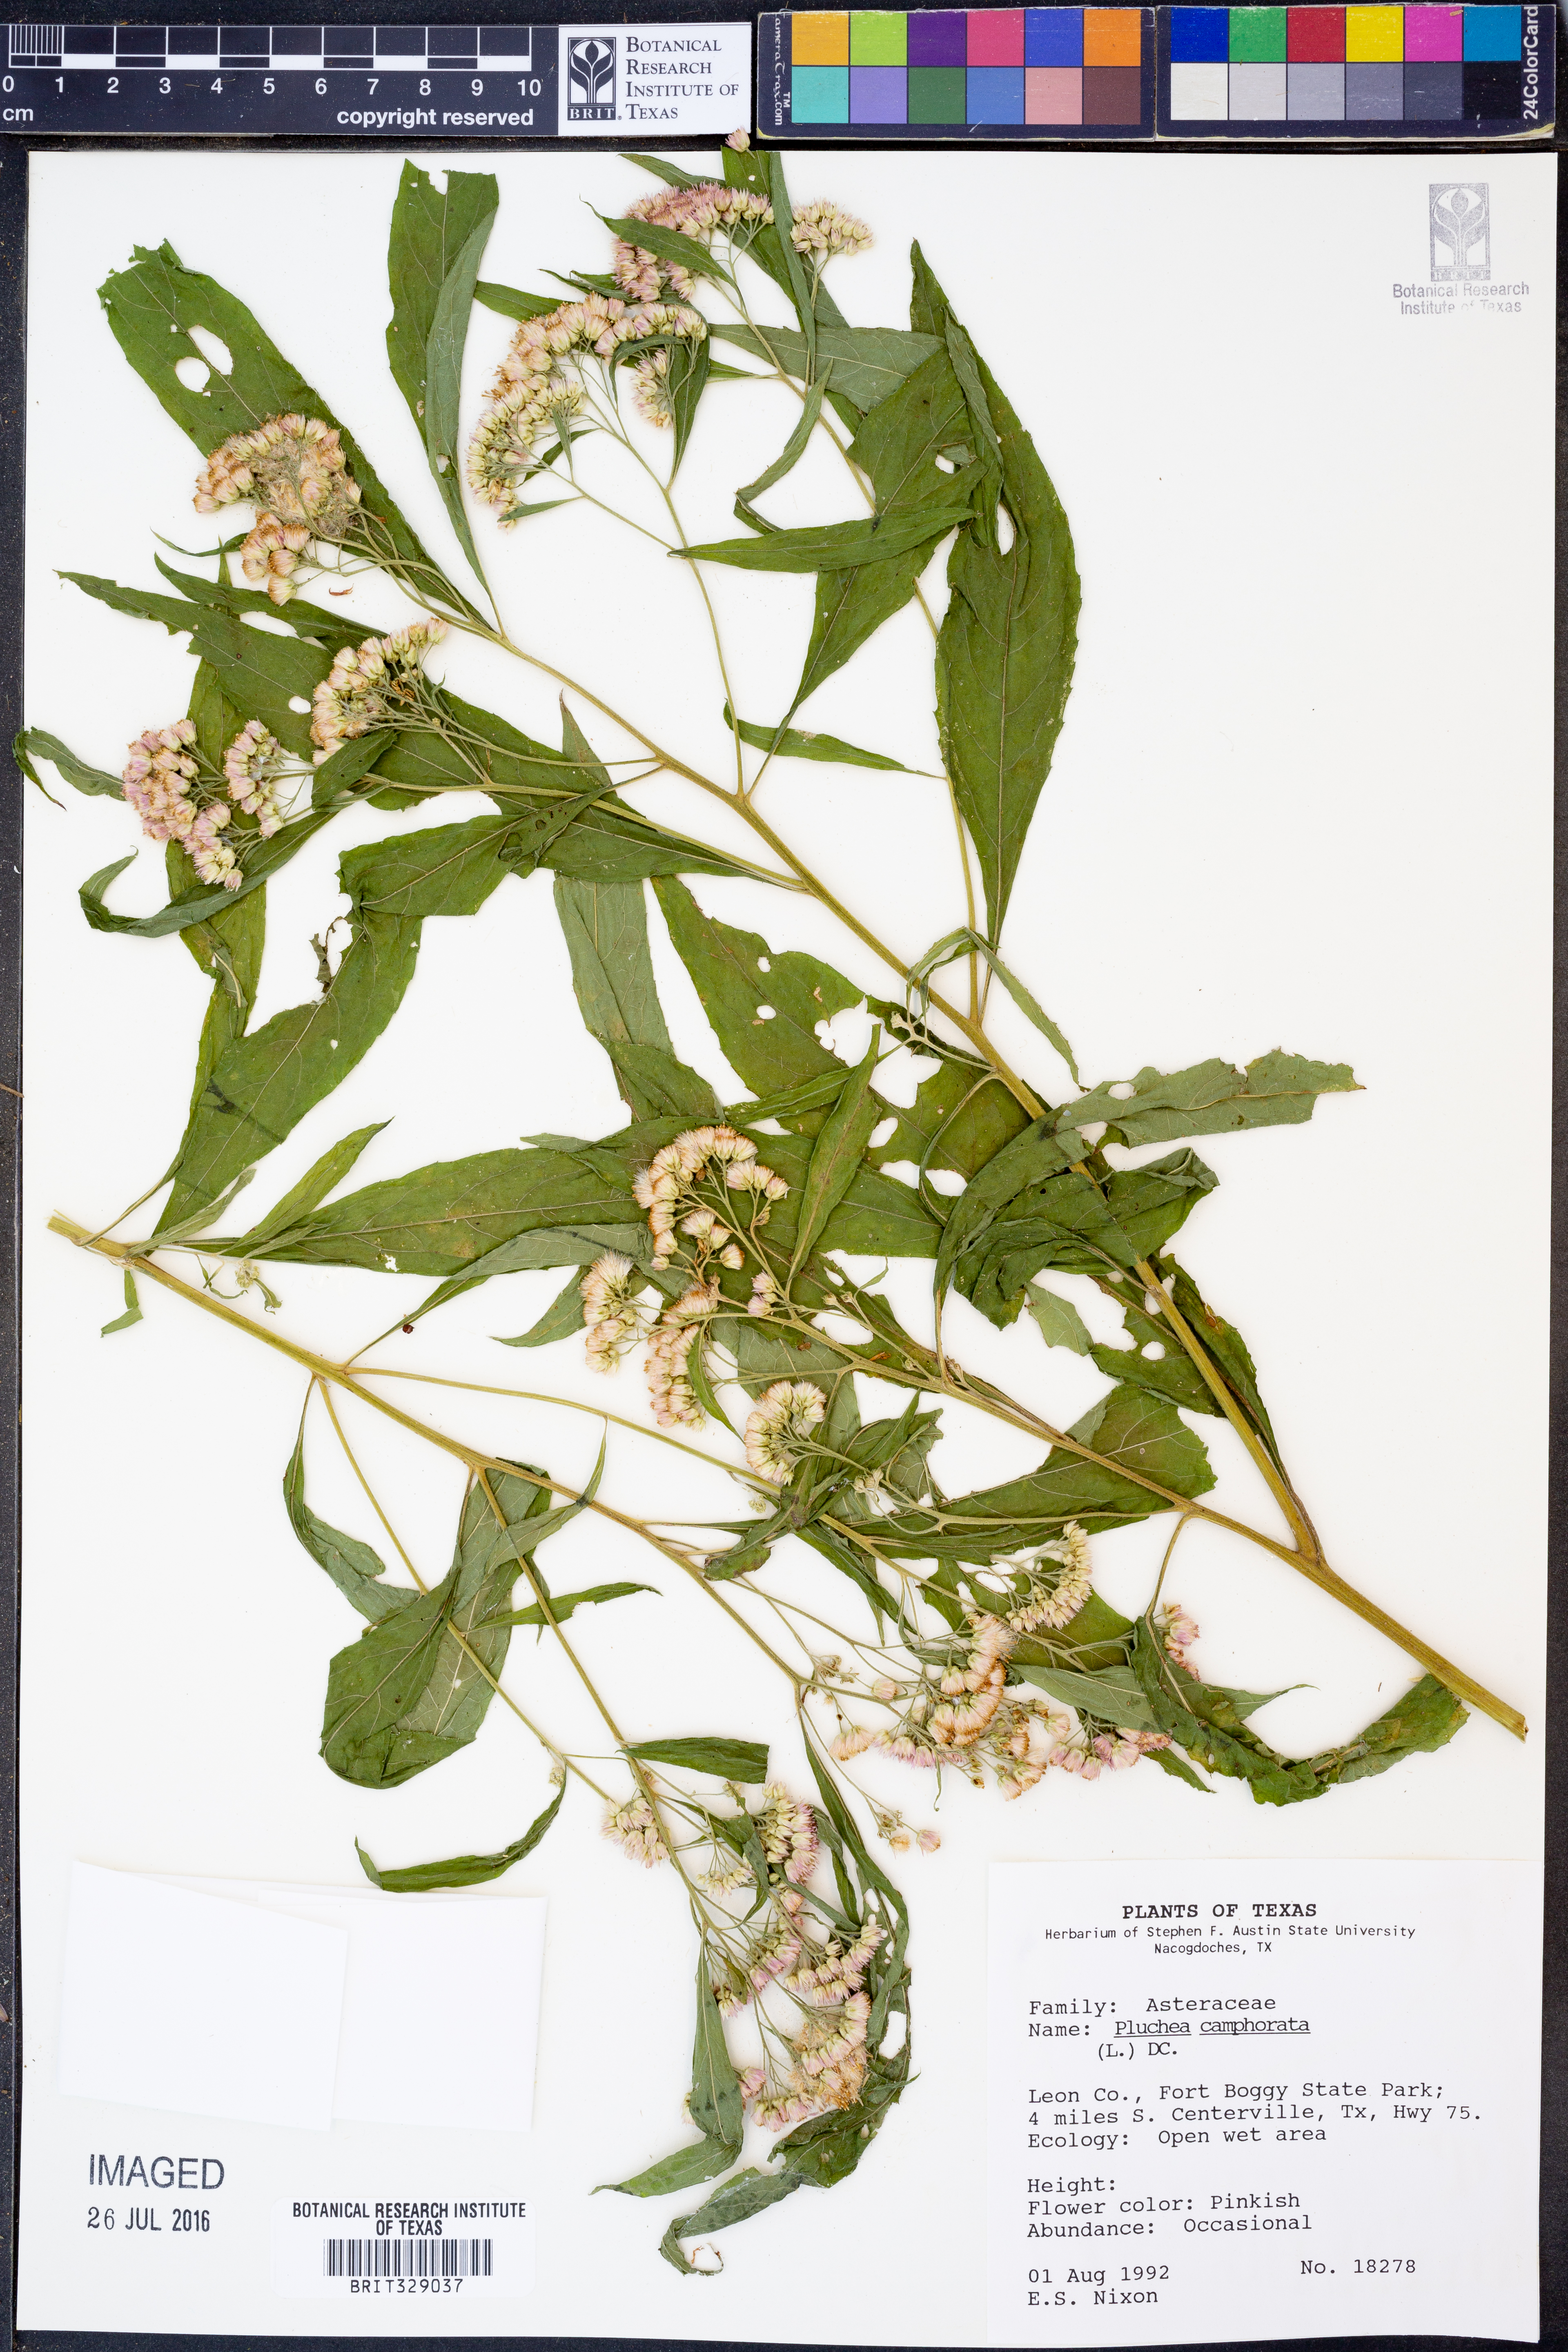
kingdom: Plantae
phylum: Tracheophyta
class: Magnoliopsida
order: Asterales
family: Asteraceae
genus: Pluchea
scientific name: Pluchea camphorata
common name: Camphor pluchea
